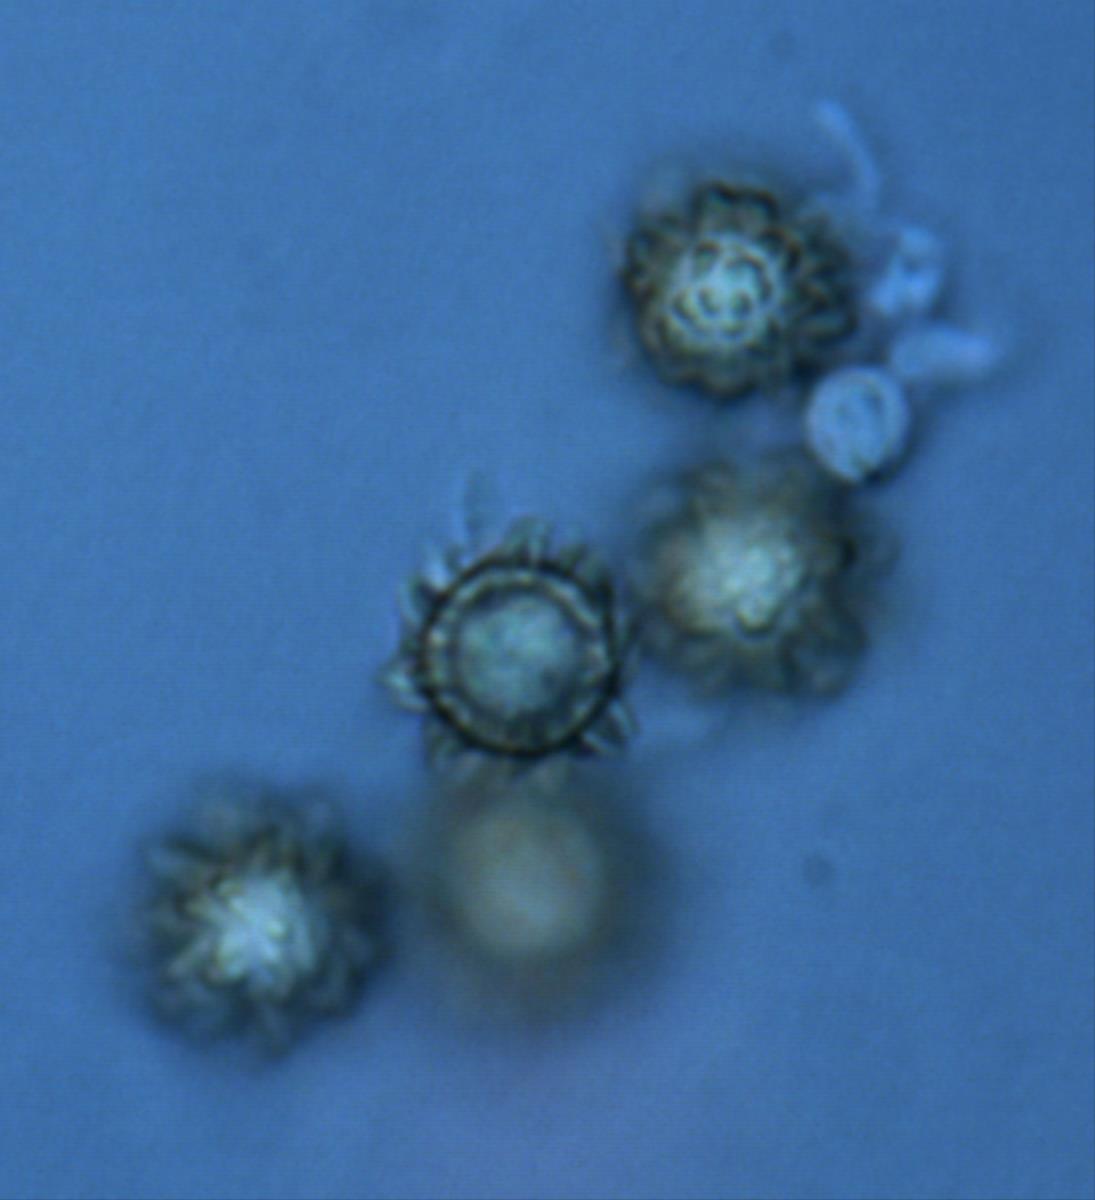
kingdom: Fungi
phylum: Basidiomycota
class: Agaricomycetes
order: Boletales
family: Sclerodermataceae
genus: Pisolithus
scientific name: Pisolithus
